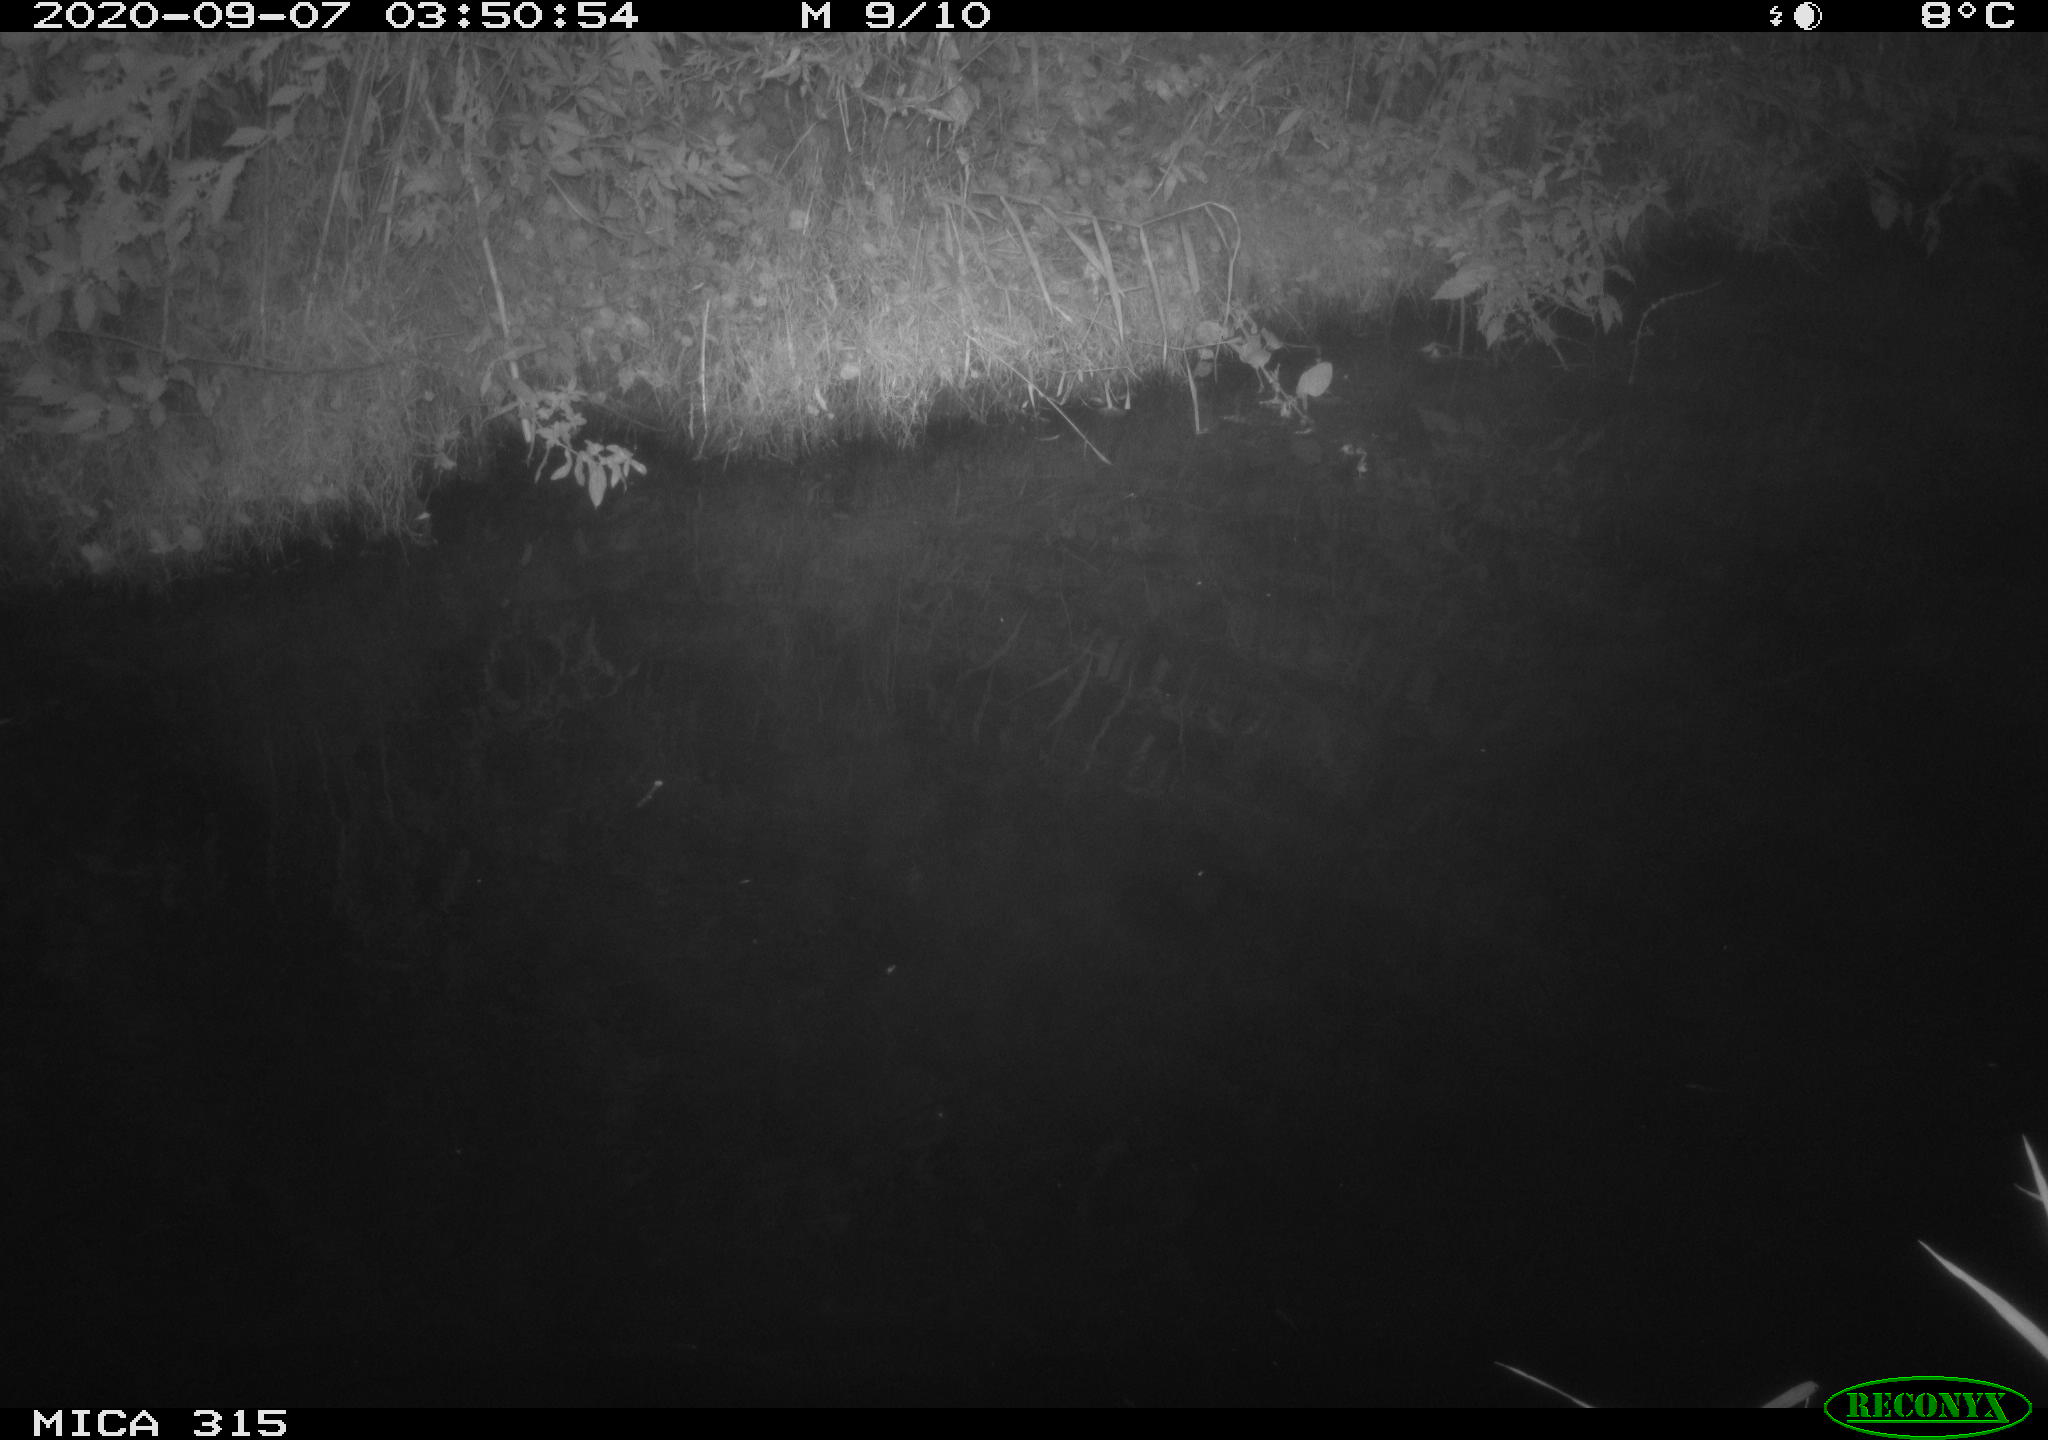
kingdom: Animalia
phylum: Chordata
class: Aves
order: Anseriformes
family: Anatidae
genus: Anas
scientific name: Anas platyrhynchos
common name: Mallard
